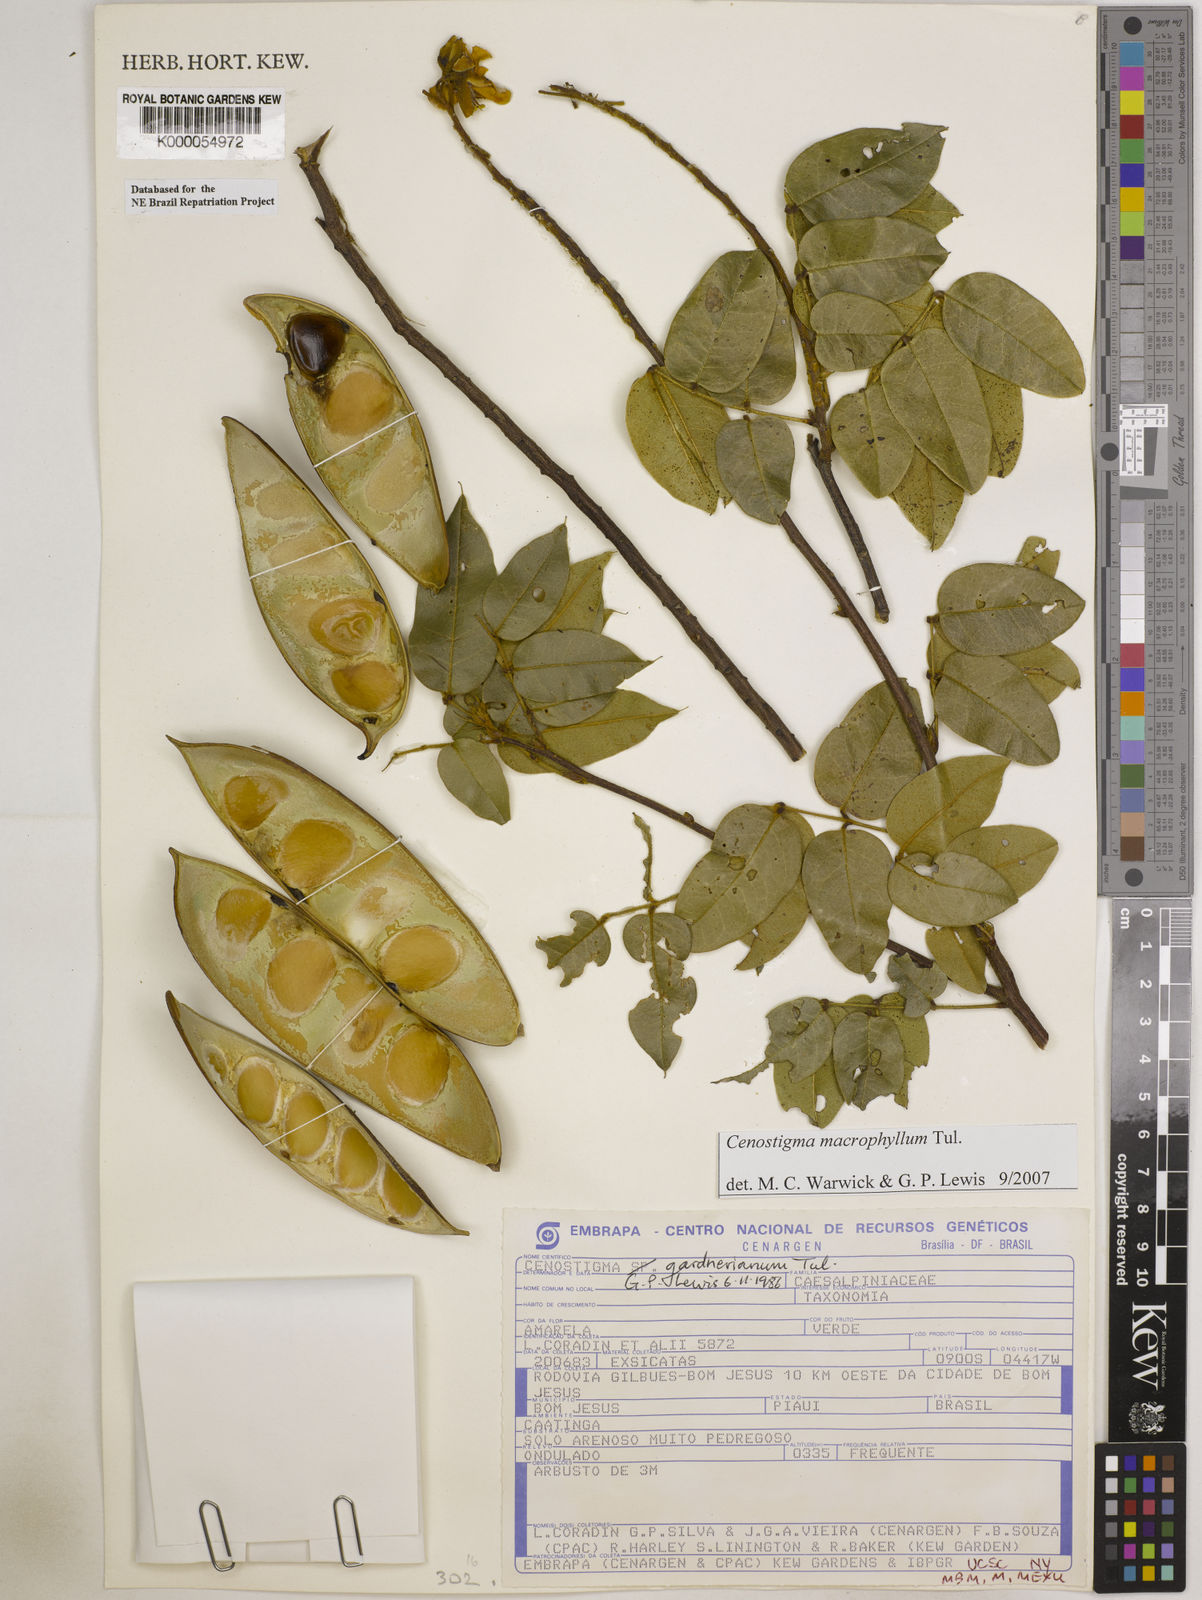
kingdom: Plantae
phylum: Tracheophyta
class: Magnoliopsida
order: Fabales
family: Fabaceae
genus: Cenostigma
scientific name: Cenostigma macrophyllum
